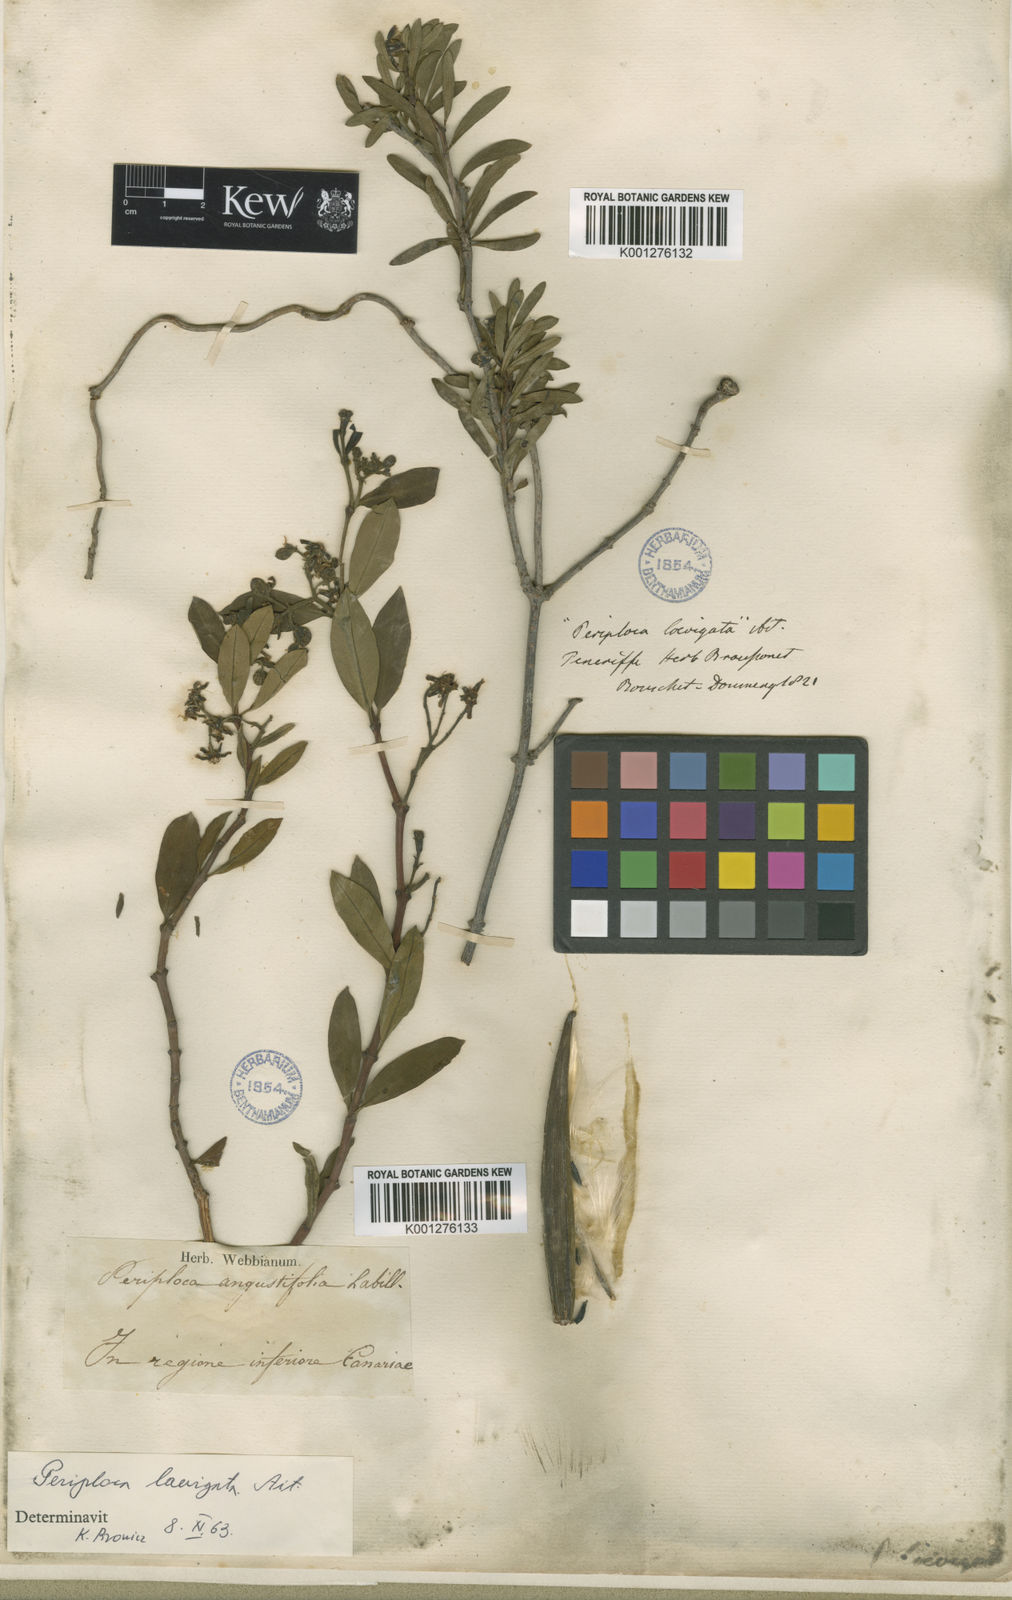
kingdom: Plantae
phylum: Tracheophyta
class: Magnoliopsida
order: Gentianales
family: Apocynaceae
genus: Periploca
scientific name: Periploca laevigata
